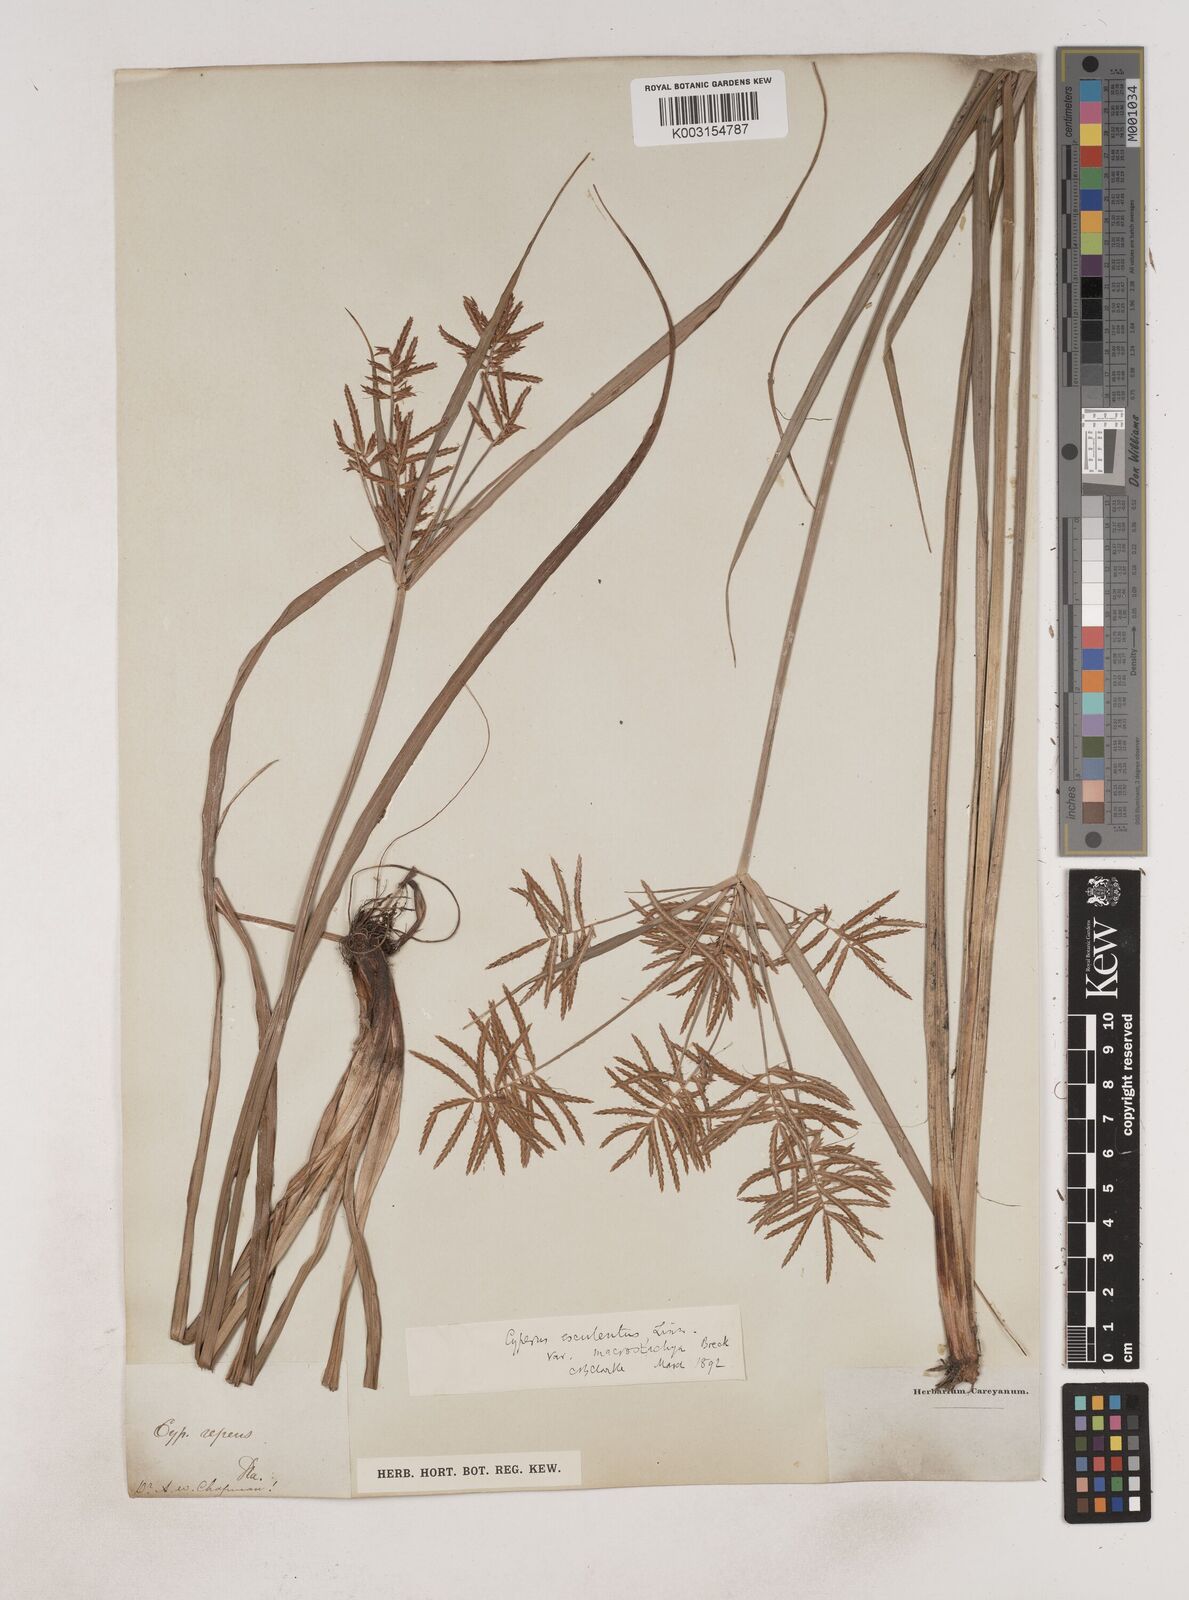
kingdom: Plantae
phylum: Tracheophyta
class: Liliopsida
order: Poales
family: Cyperaceae
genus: Cyperus
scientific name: Cyperus esculentus
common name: Yellow nutsedge
